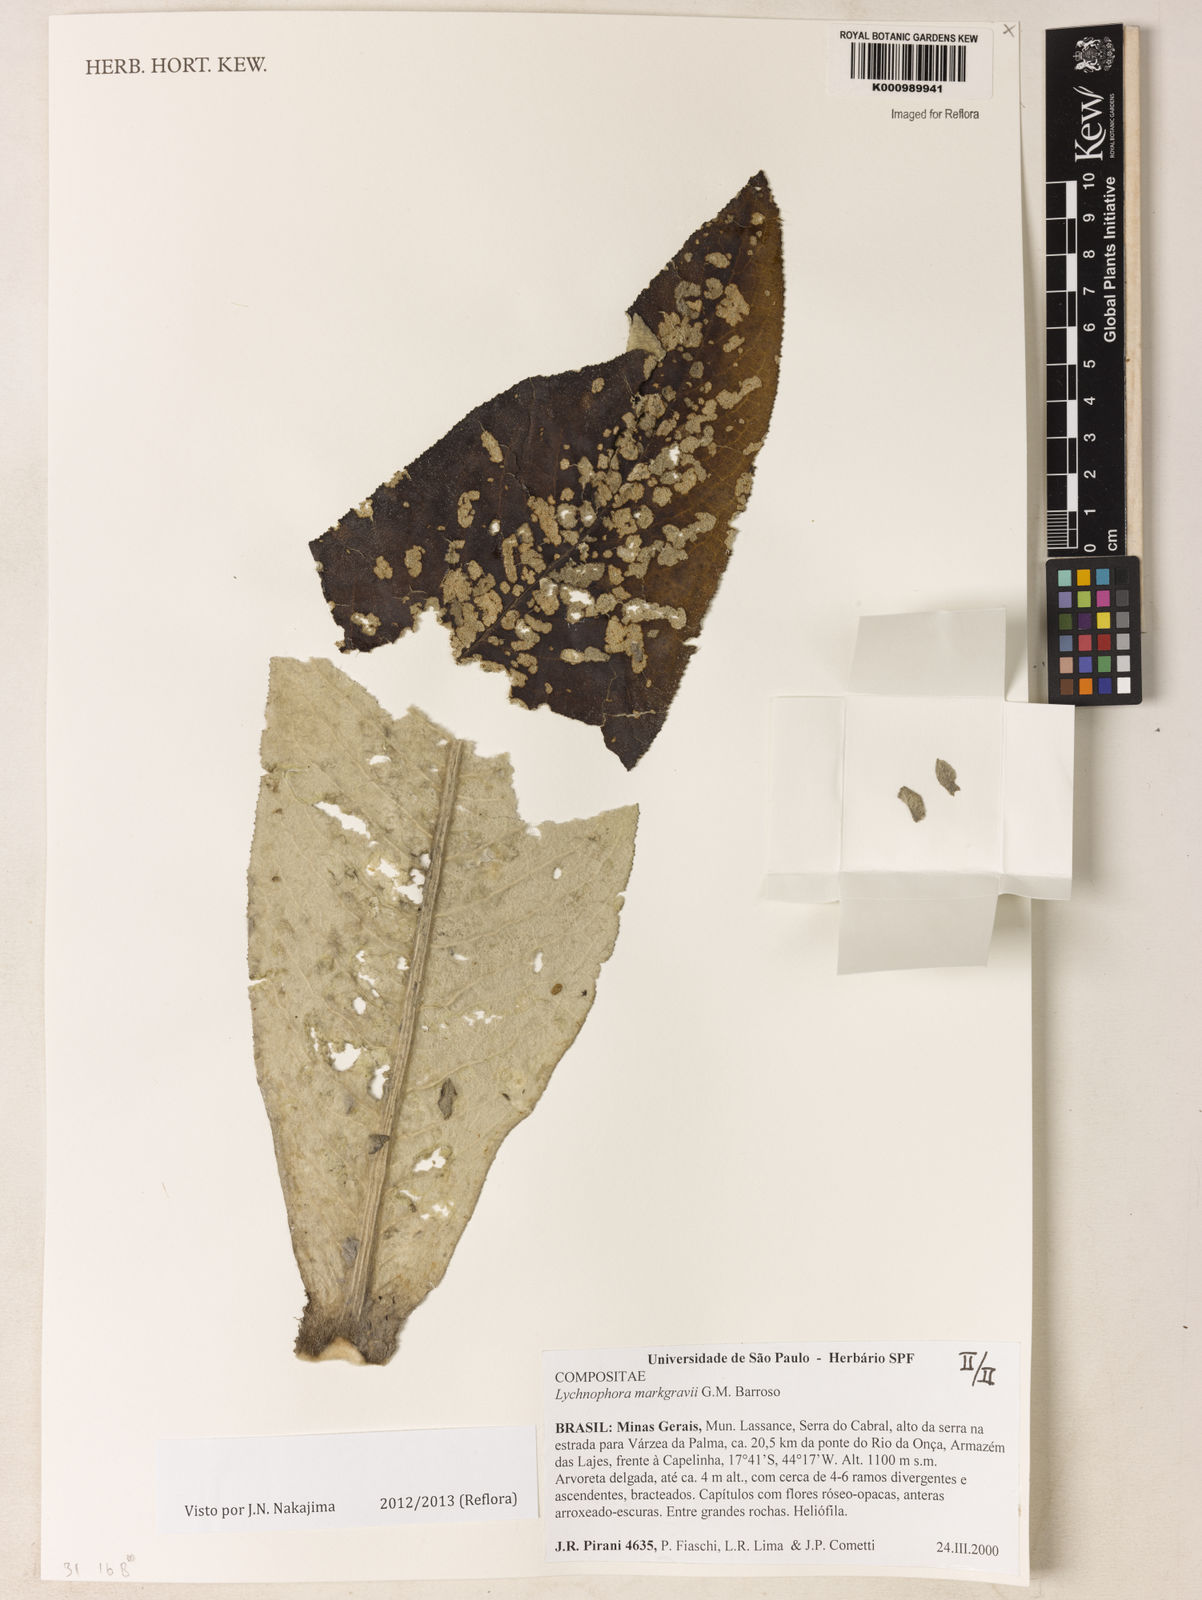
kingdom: Plantae
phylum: Tracheophyta
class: Magnoliopsida
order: Asterales
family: Asteraceae
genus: Lychnophora
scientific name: Lychnophora
